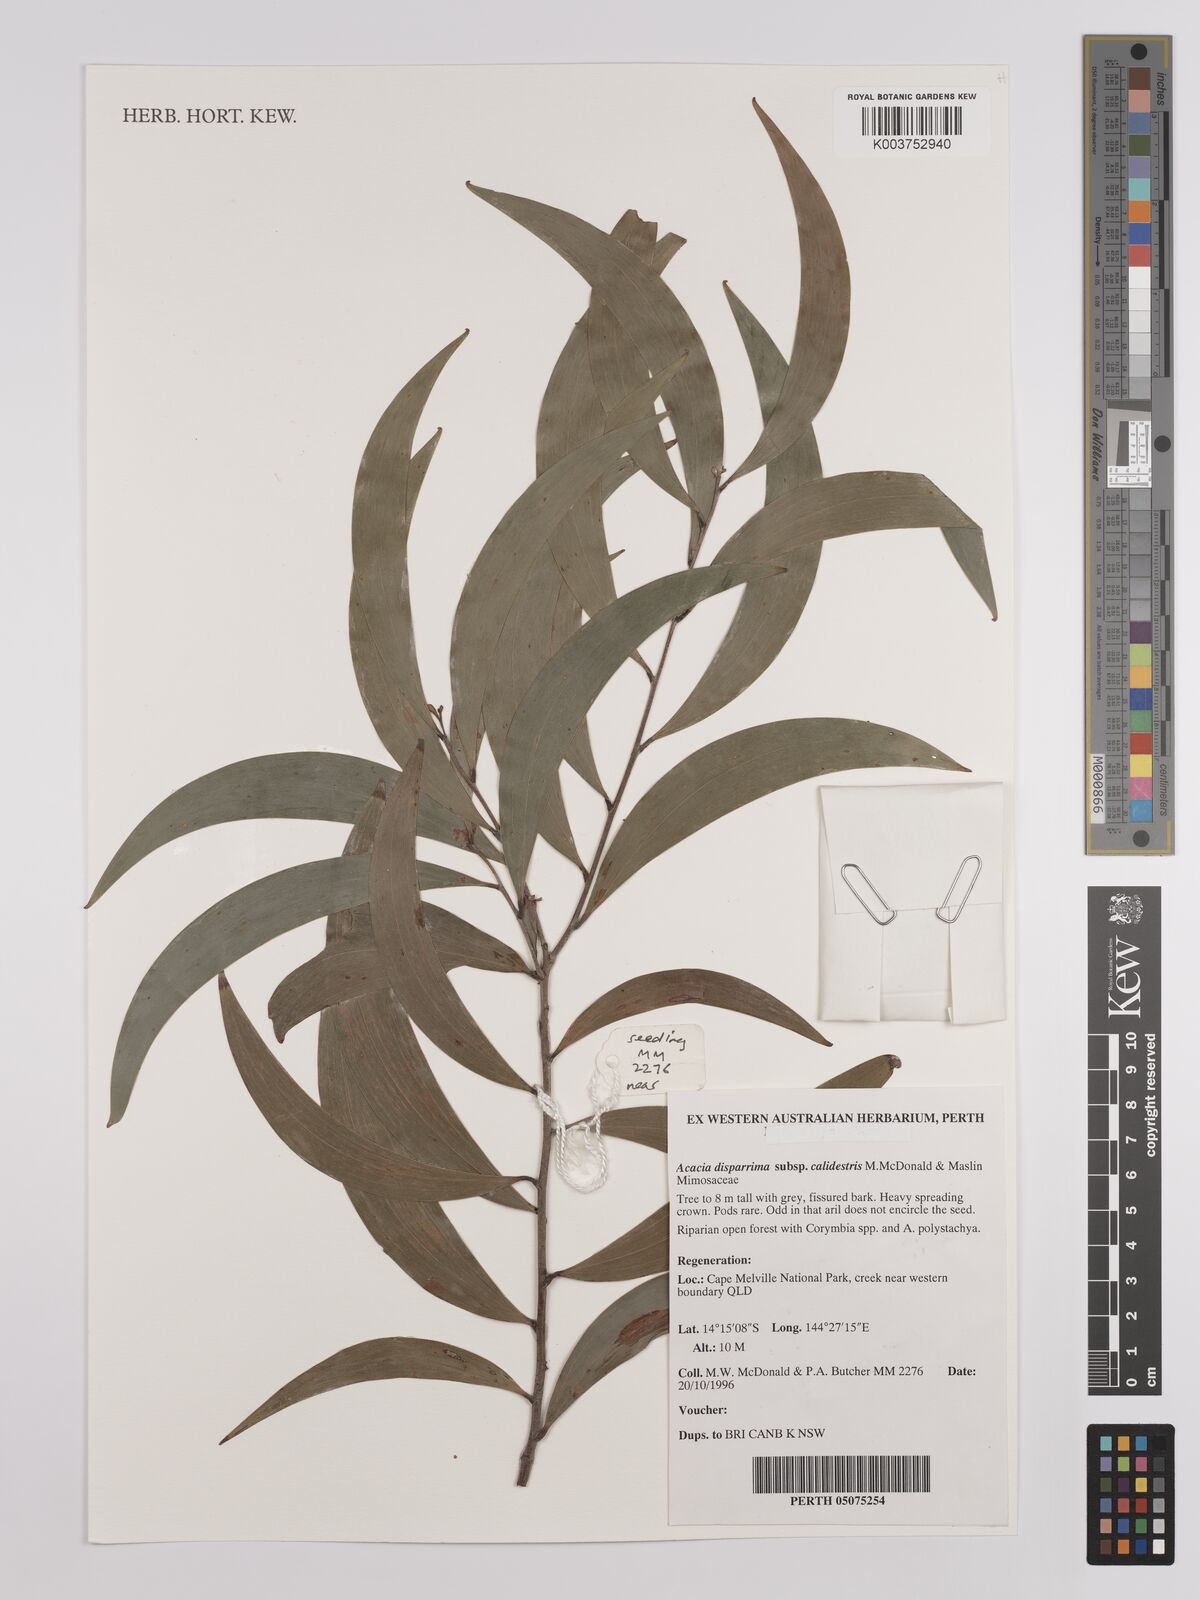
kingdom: Plantae
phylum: Tracheophyta
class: Magnoliopsida
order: Fabales
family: Fabaceae
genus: Acacia
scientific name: Acacia disparrima
